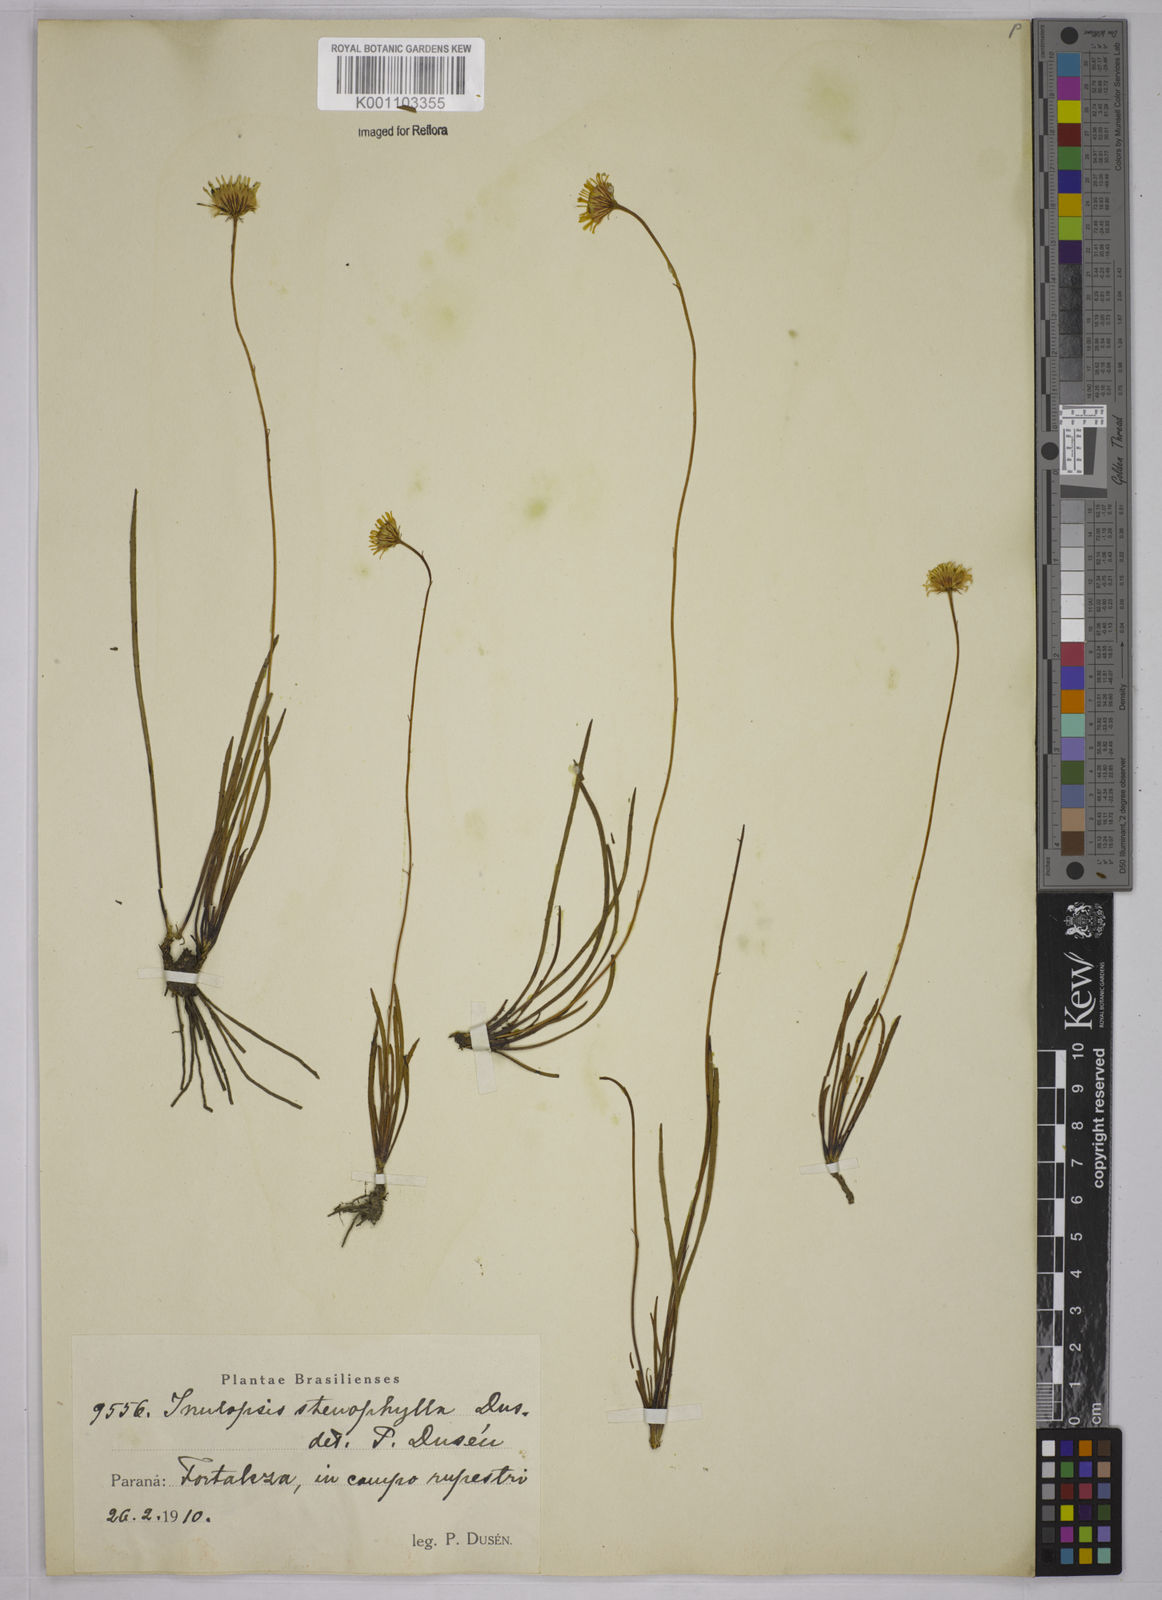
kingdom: Plantae
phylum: Tracheophyta
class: Magnoliopsida
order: Asterales
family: Asteraceae
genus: Inulopsis
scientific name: Inulopsis
